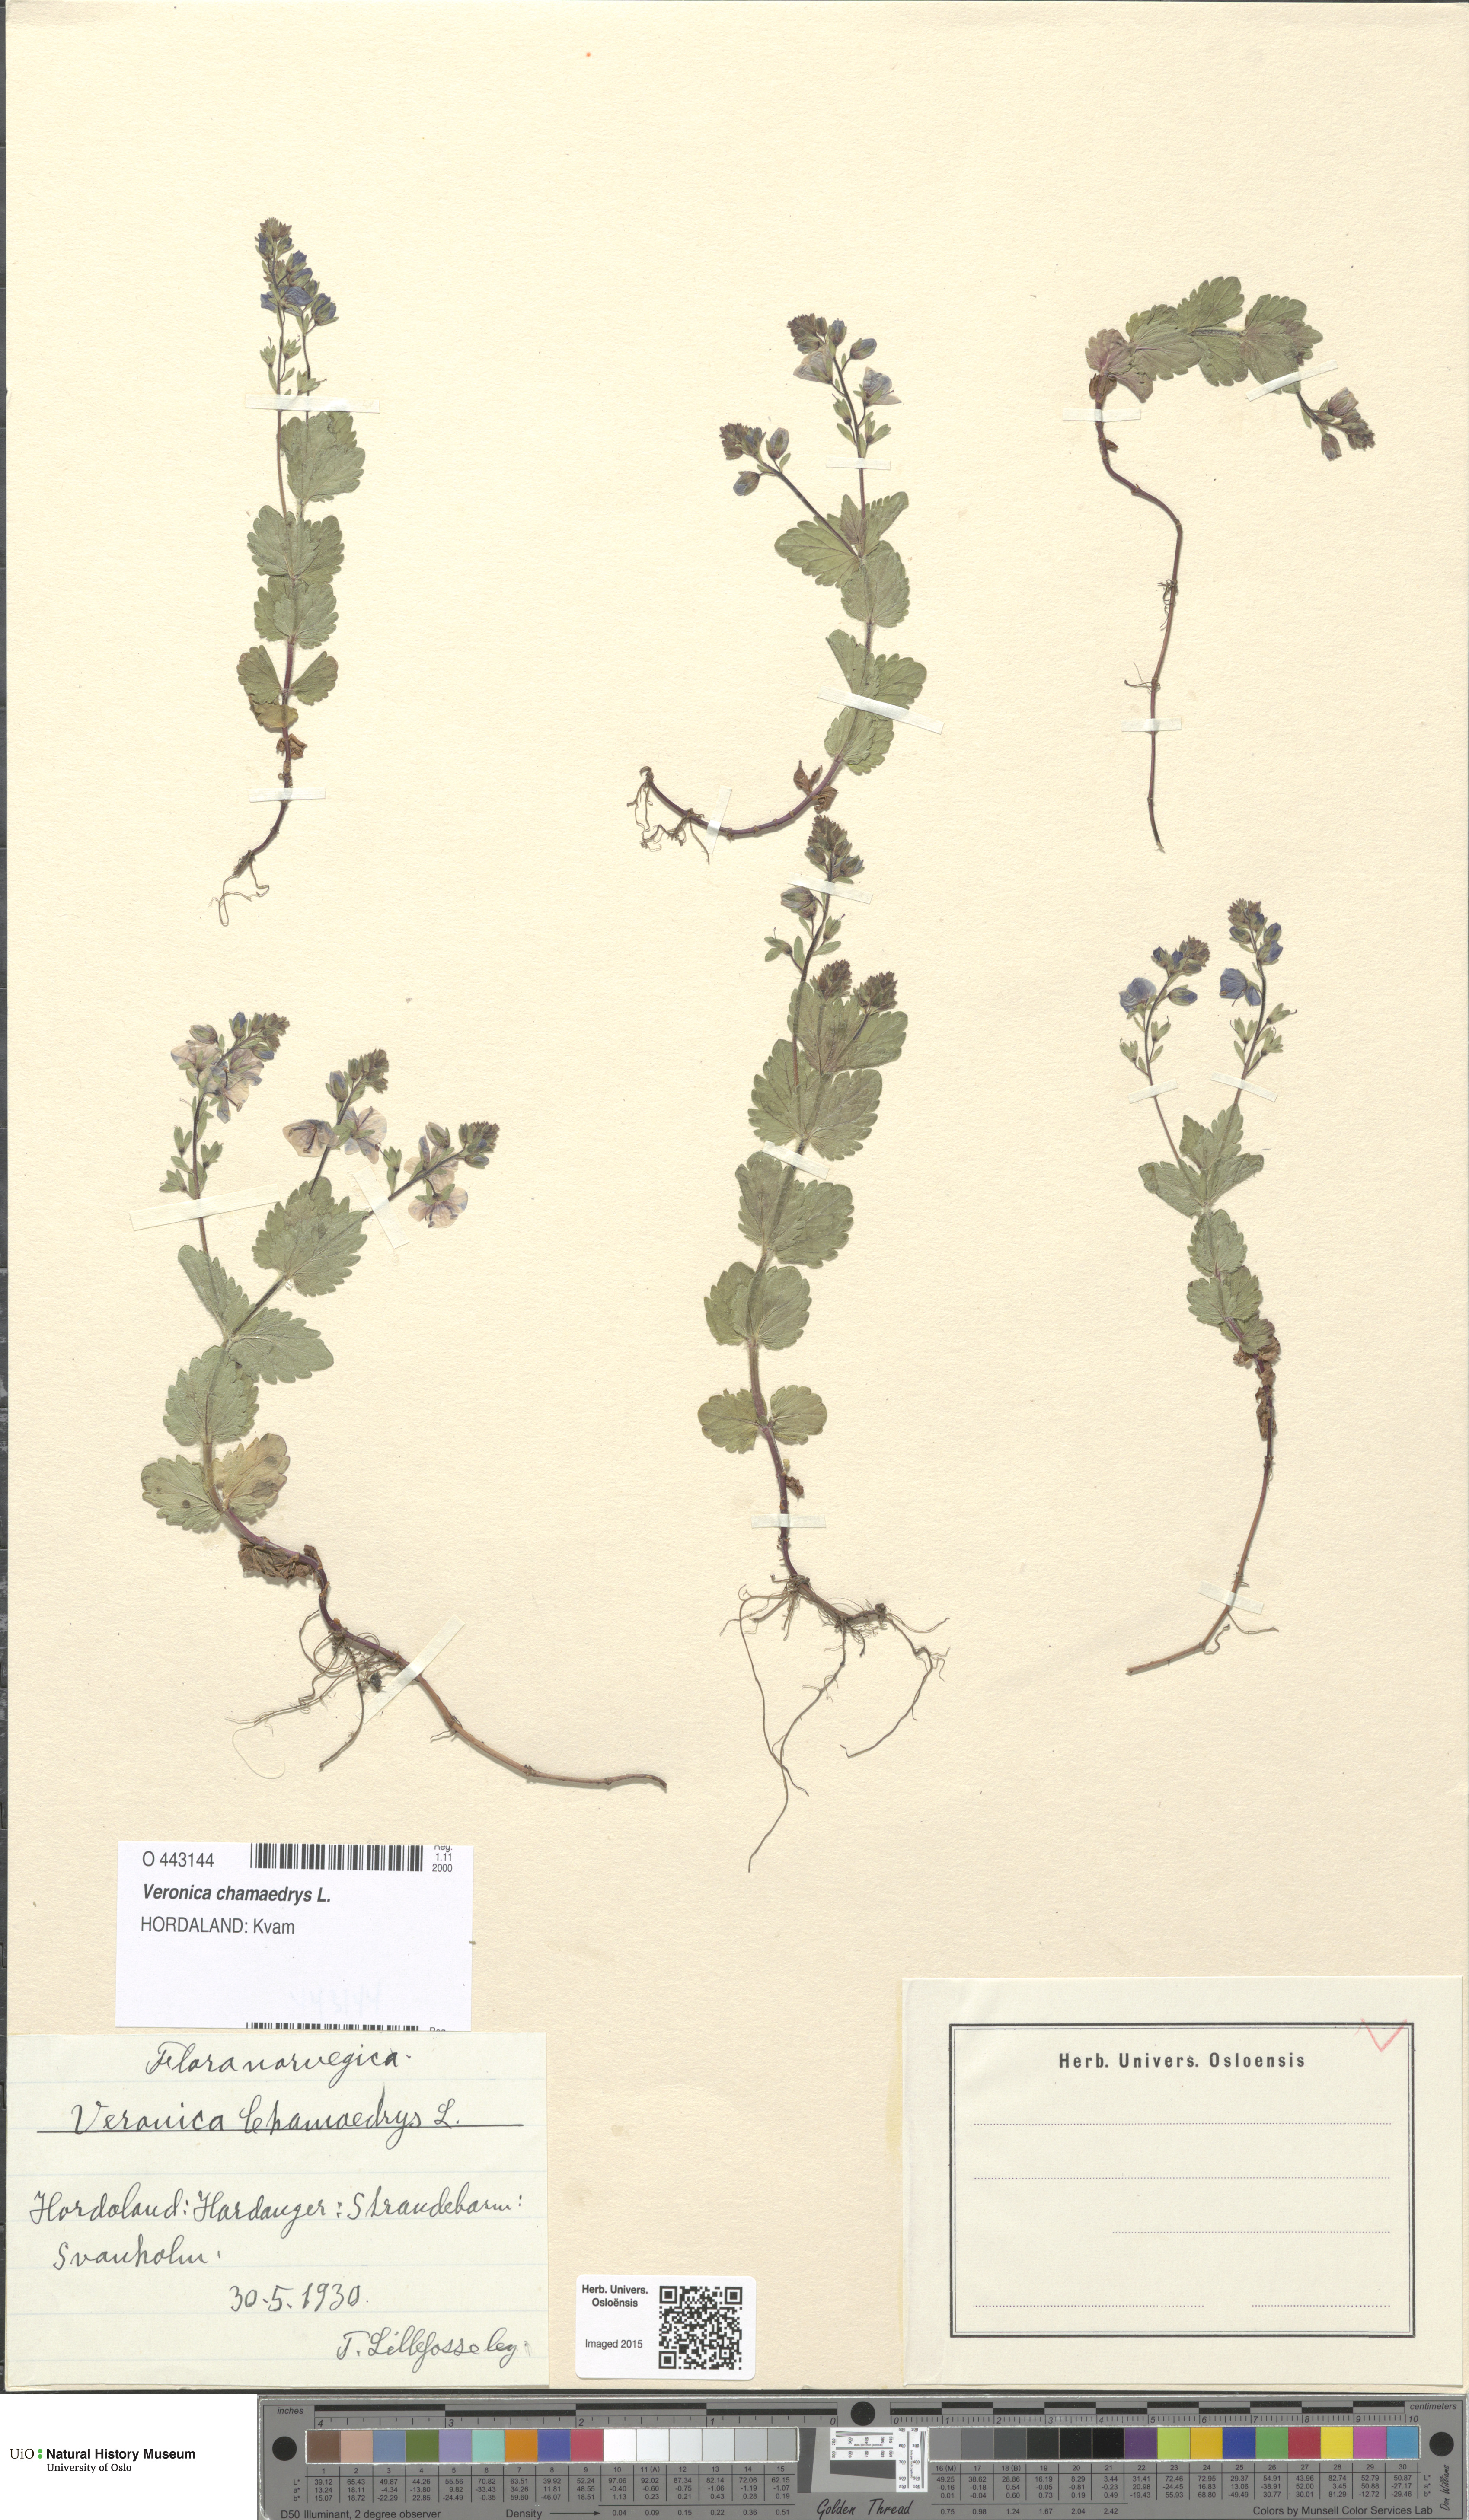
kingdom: Plantae
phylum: Tracheophyta
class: Magnoliopsida
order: Lamiales
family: Plantaginaceae
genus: Veronica
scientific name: Veronica chamaedrys
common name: Germander speedwell
